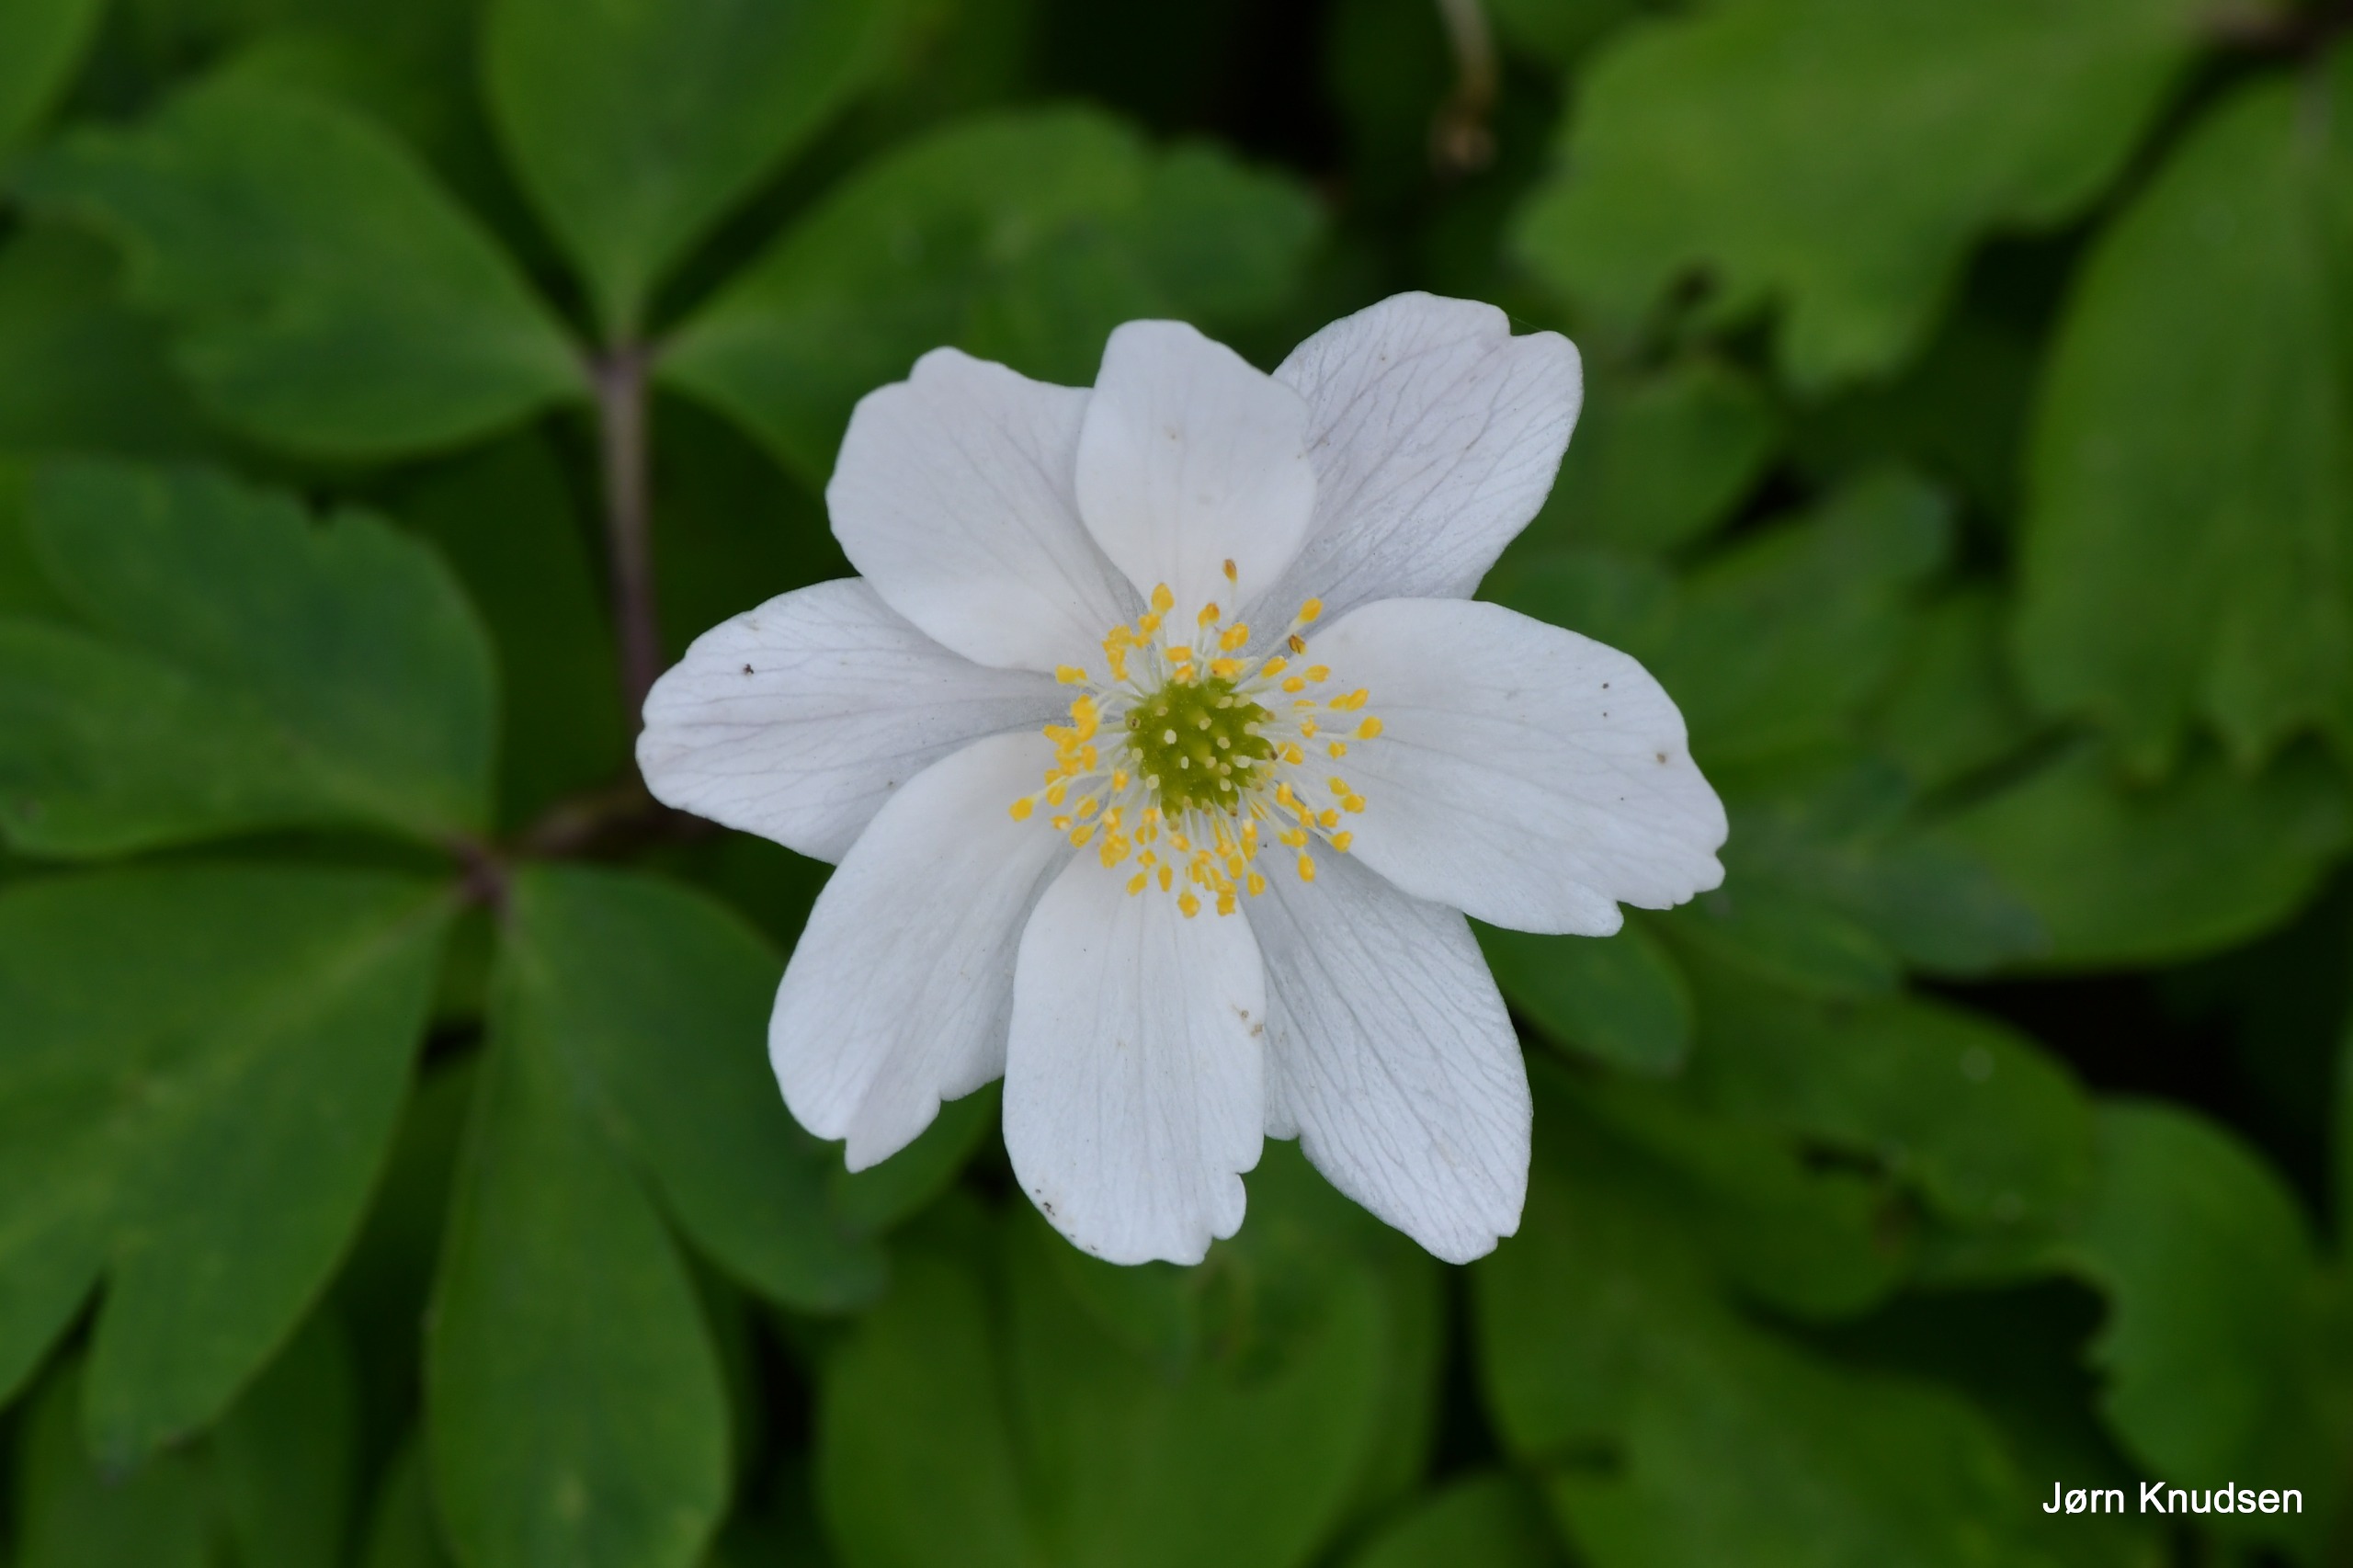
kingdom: Plantae
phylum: Tracheophyta
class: Magnoliopsida
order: Ranunculales
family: Ranunculaceae
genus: Anemone
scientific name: Anemone nemorosa
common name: Hvid anemone
